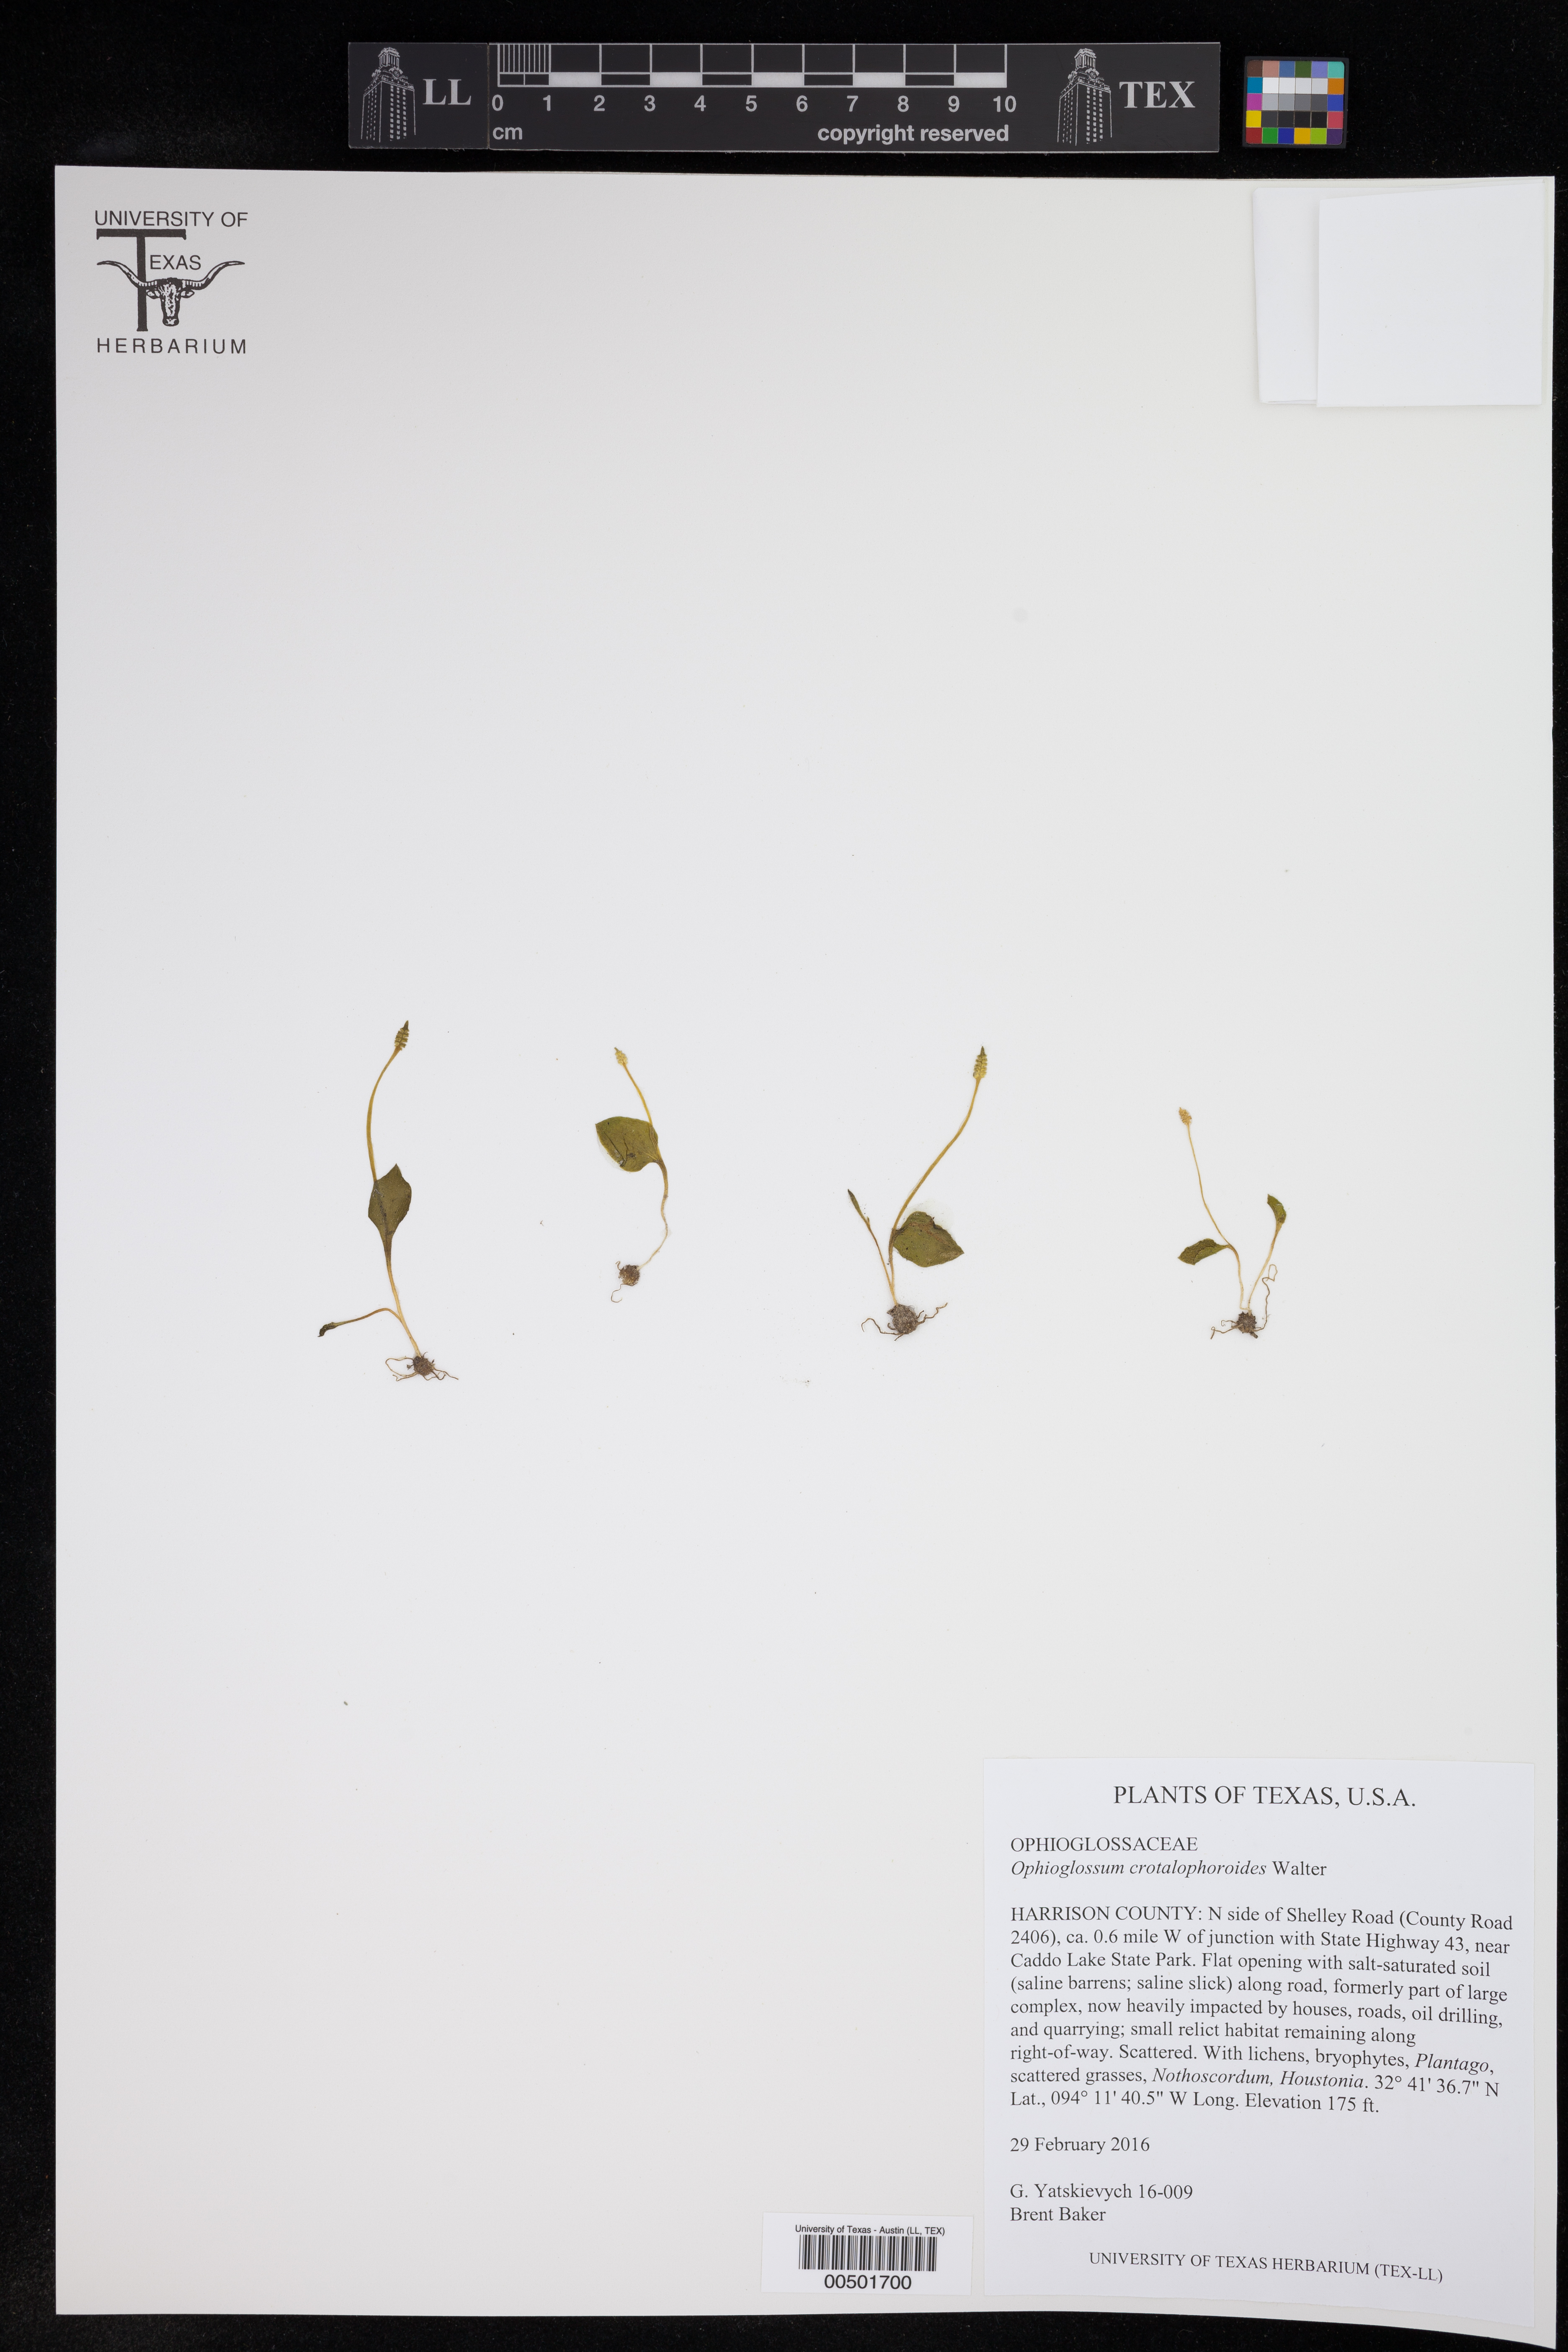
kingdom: Plantae
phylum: Tracheophyta
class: Polypodiopsida
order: Ophioglossales
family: Ophioglossaceae
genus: Ophioglossum
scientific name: Ophioglossum crotalophoroides
